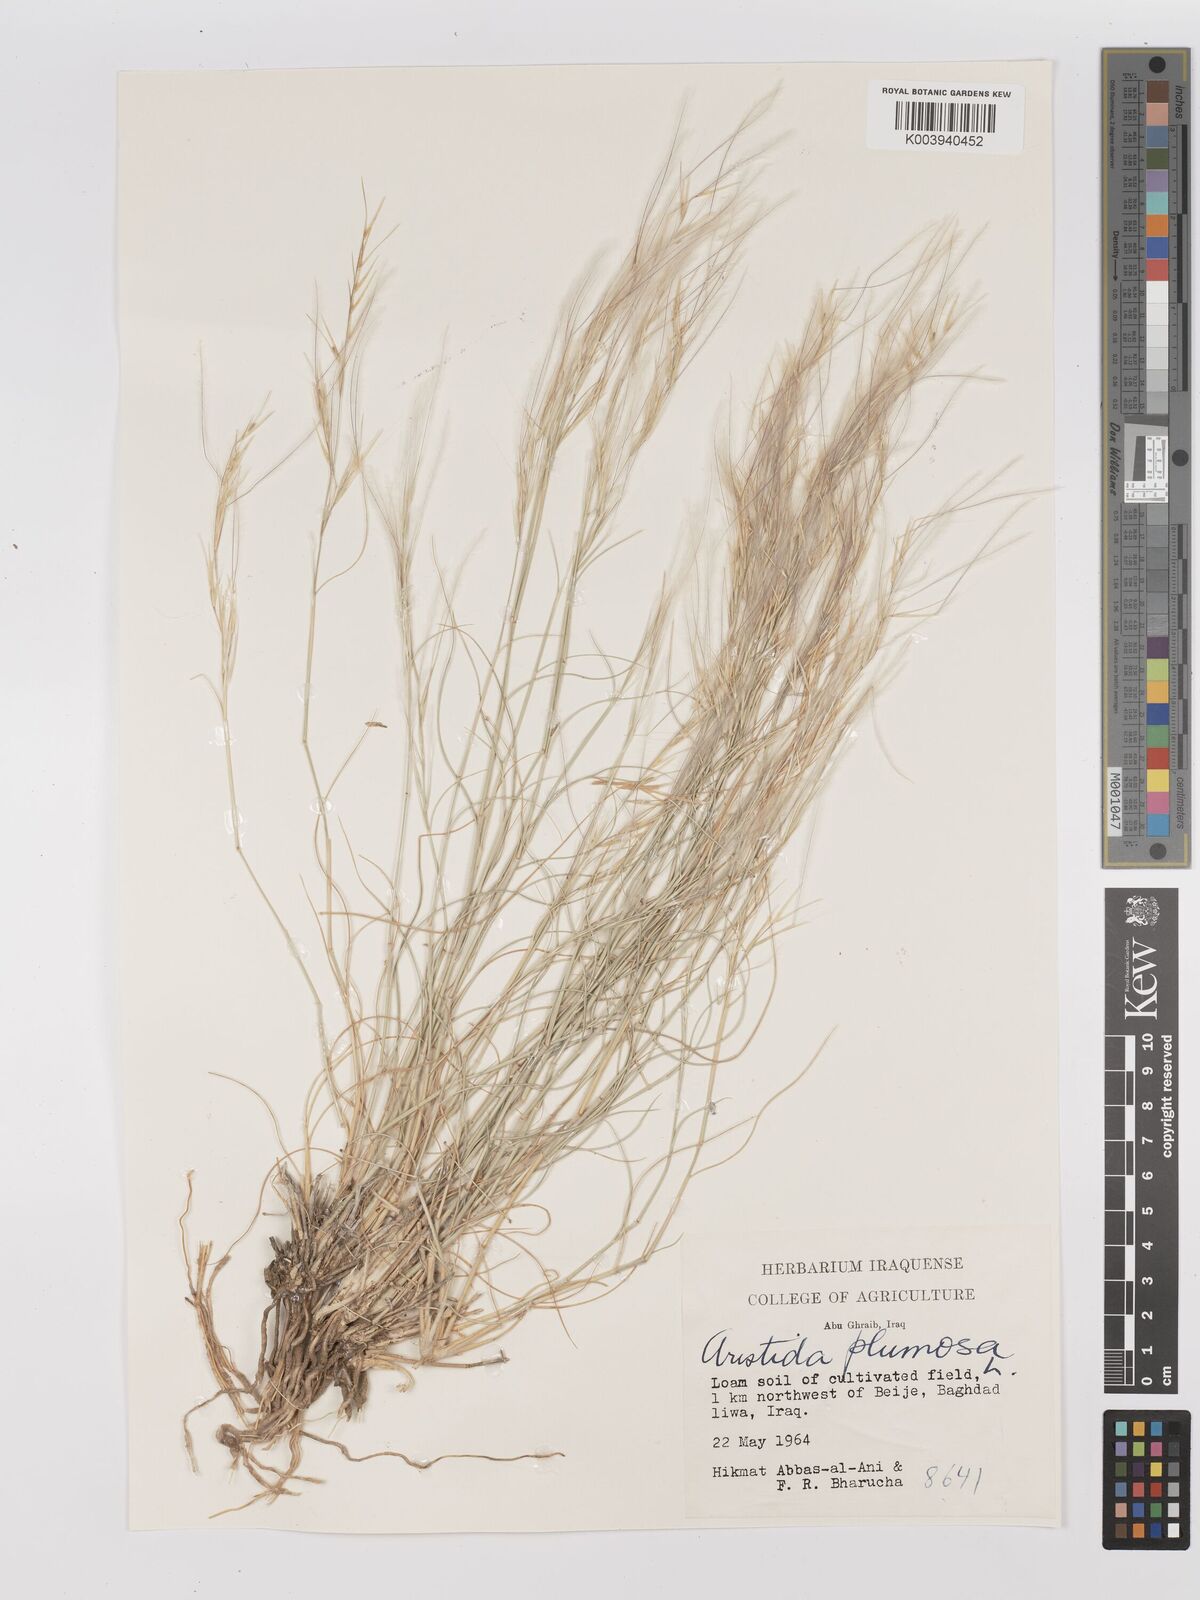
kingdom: Plantae
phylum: Tracheophyta
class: Liliopsida
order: Poales
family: Poaceae
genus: Stipagrostis
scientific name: Stipagrostis plumosa
